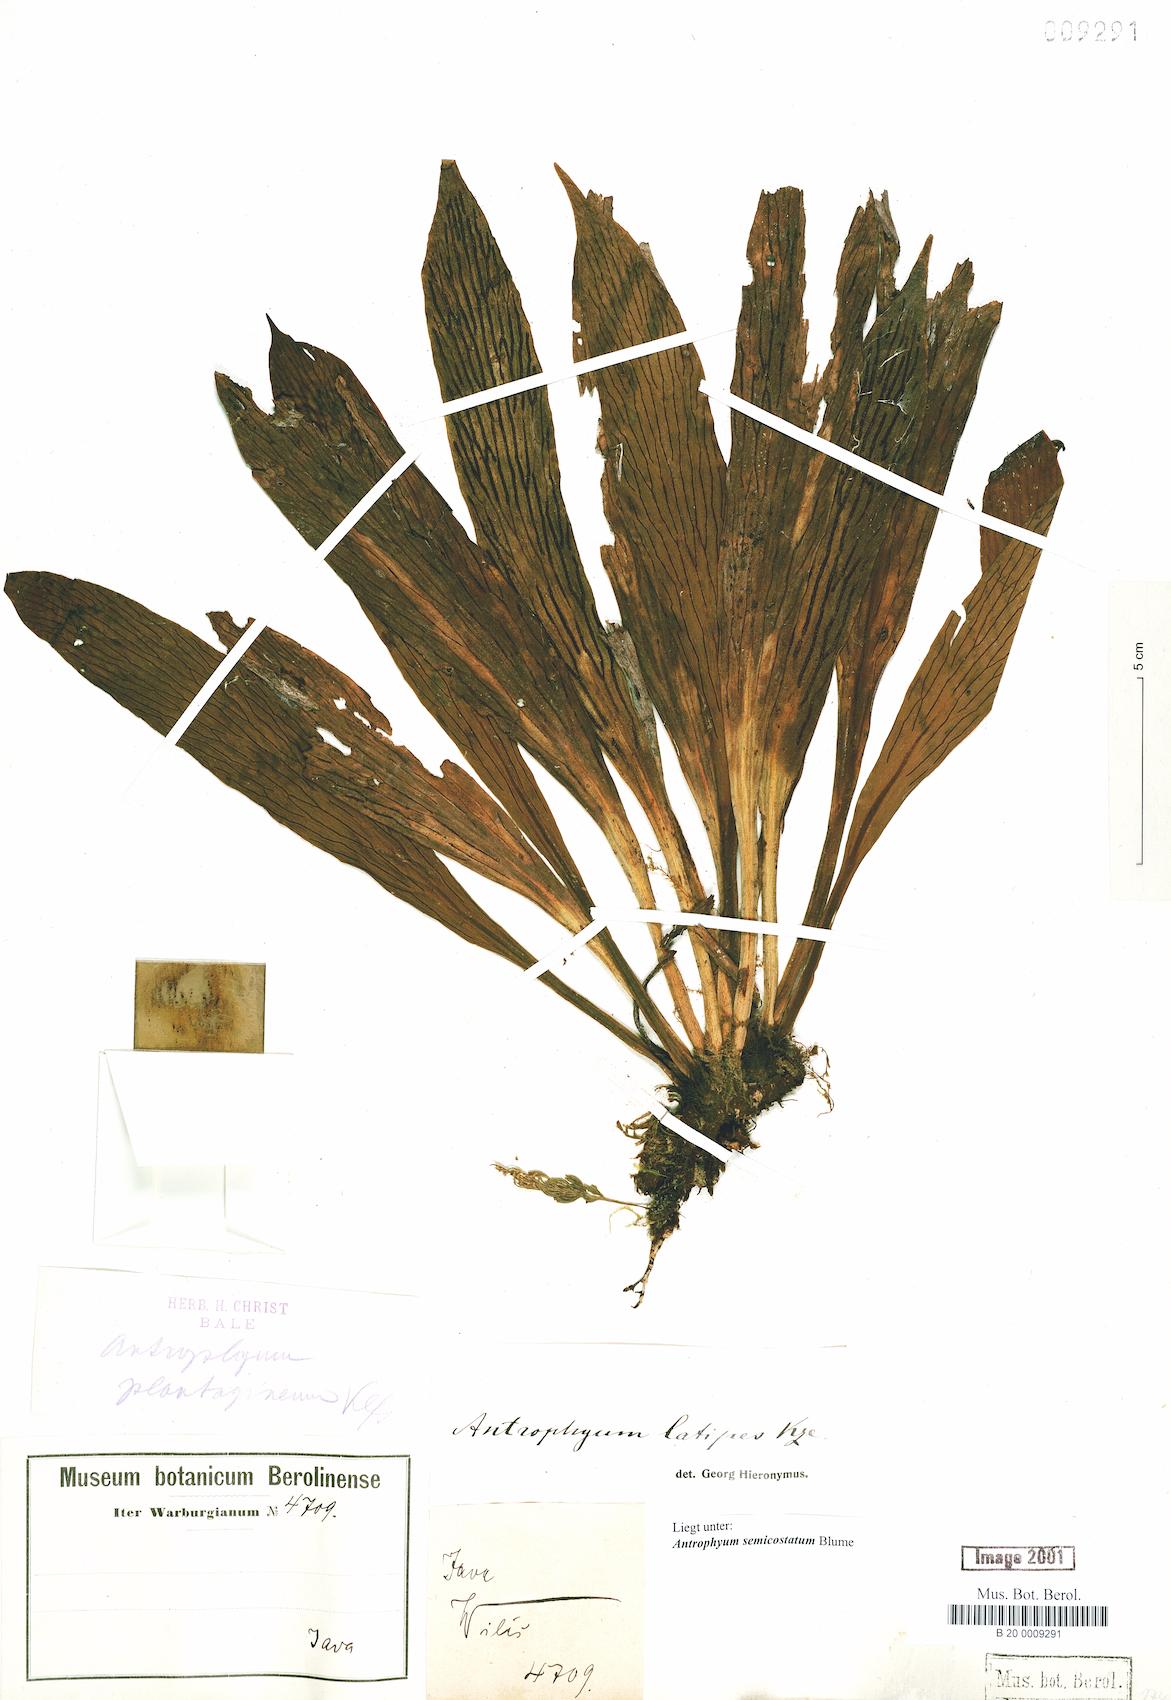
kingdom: Plantae
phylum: Tracheophyta
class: Polypodiopsida
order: Polypodiales
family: Pteridaceae
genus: Antrophyum
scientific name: Antrophyum semicostatum
